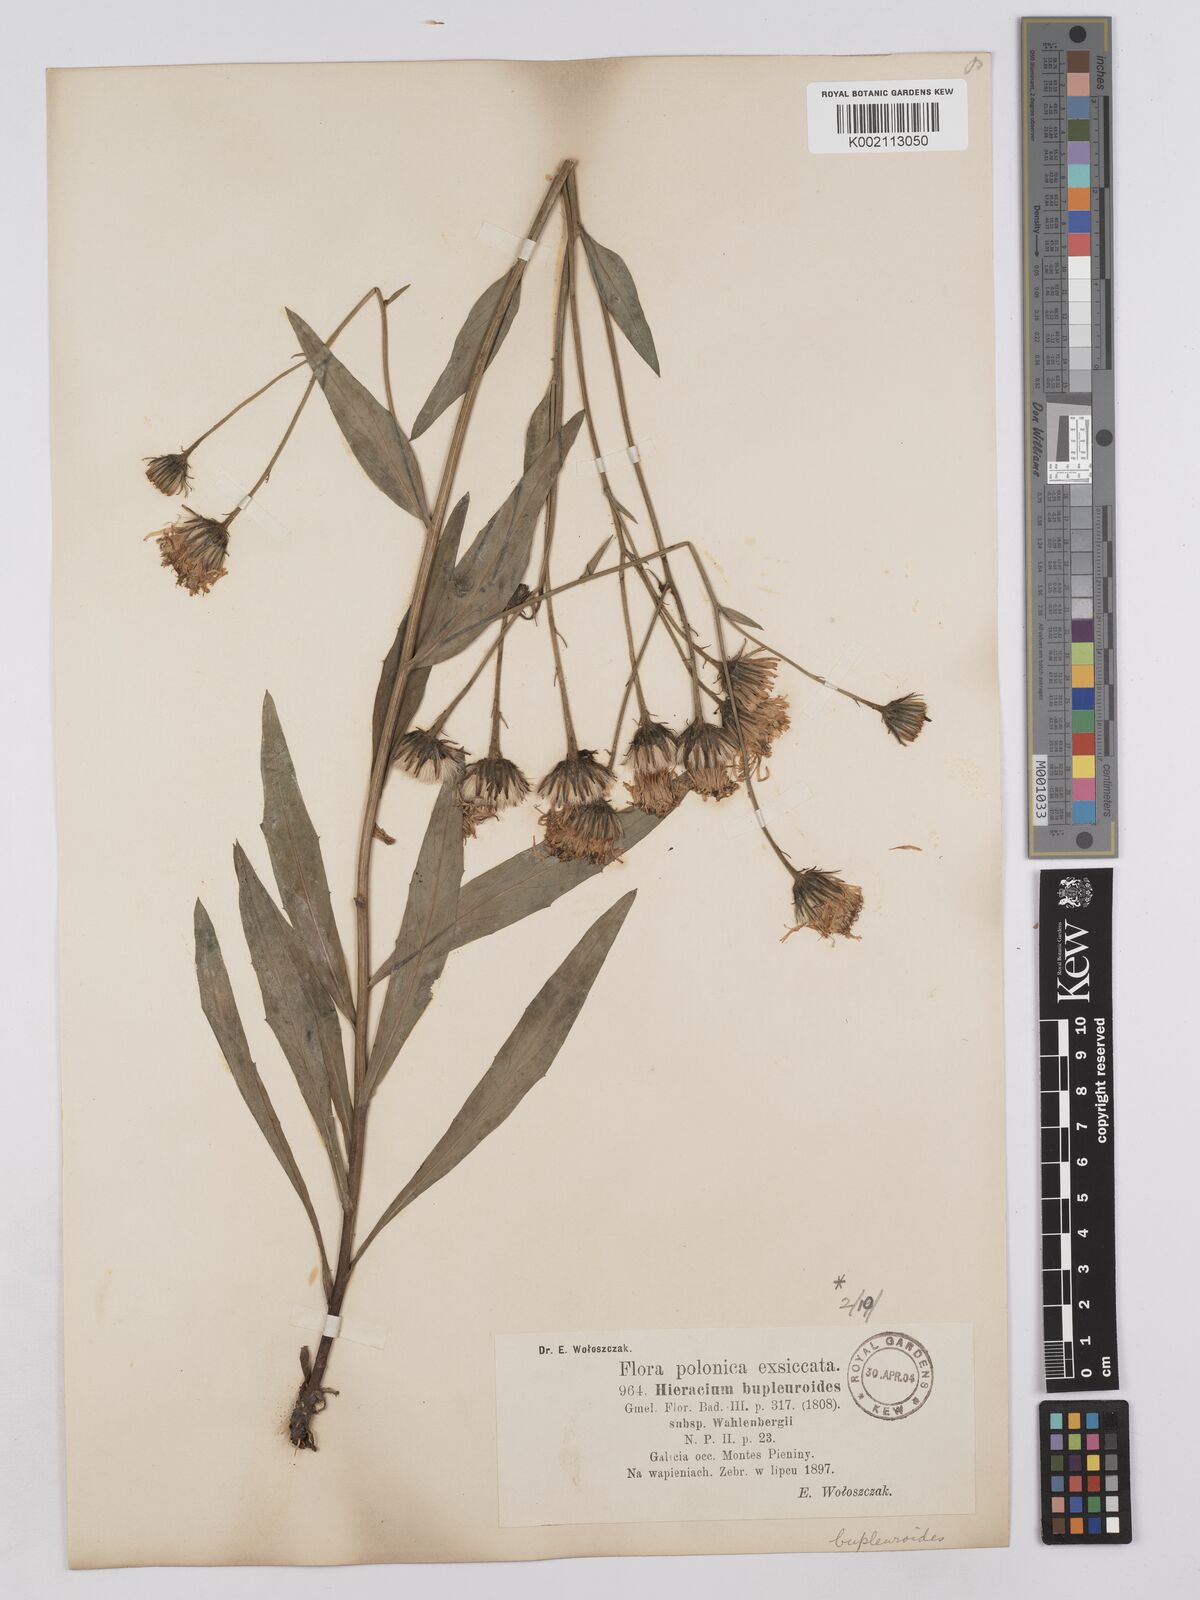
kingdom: Plantae
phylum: Tracheophyta
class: Magnoliopsida
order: Asterales
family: Asteraceae
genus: Hieracium
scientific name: Hieracium bupleuroides
